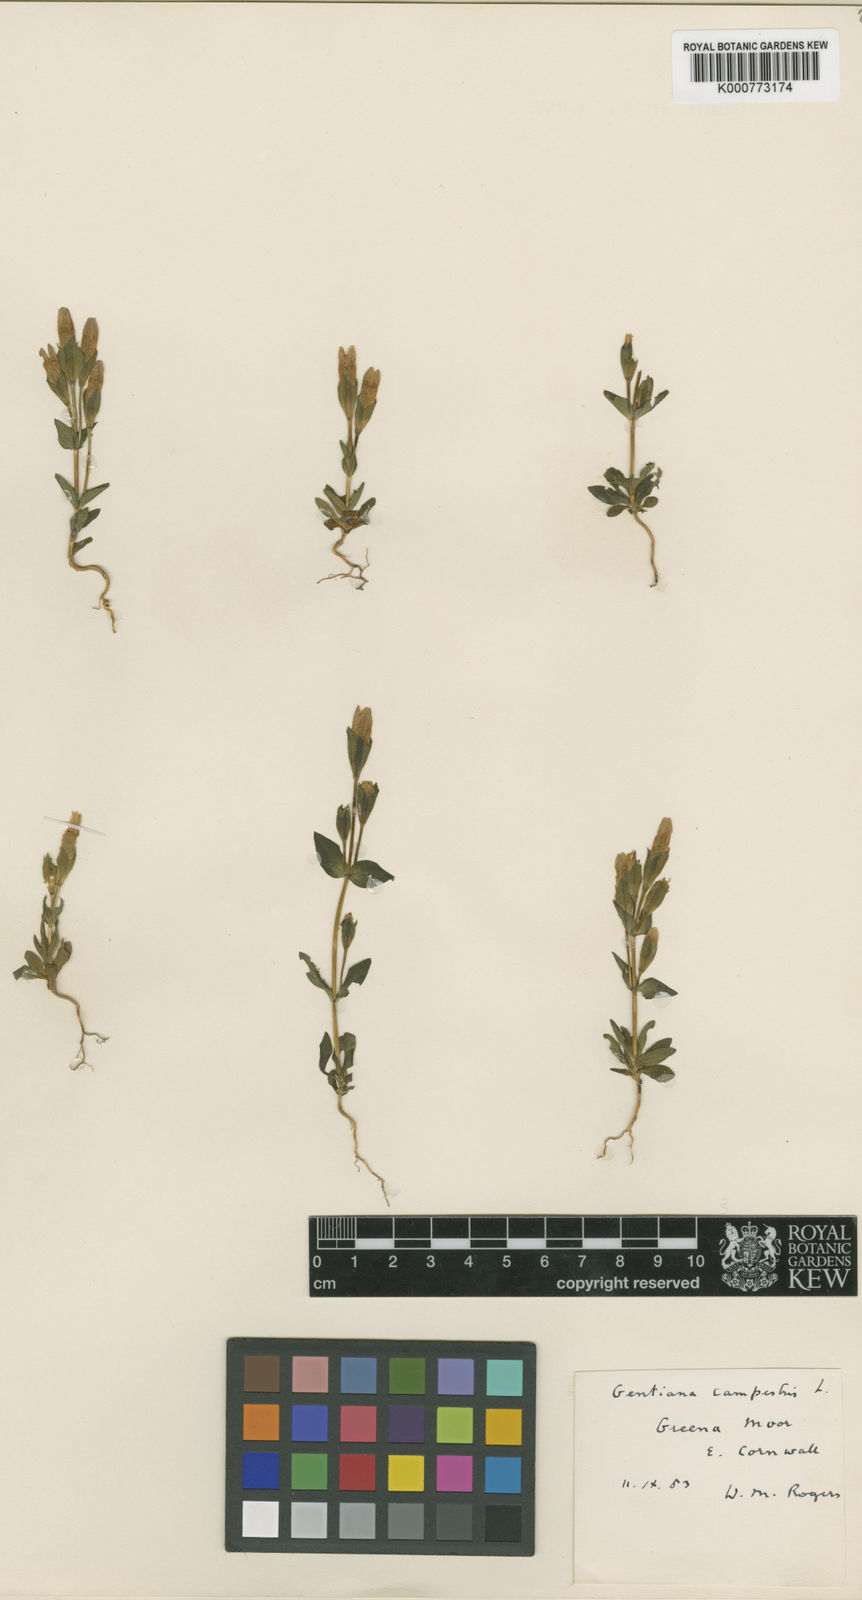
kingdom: Plantae
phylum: Tracheophyta
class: Magnoliopsida
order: Gentianales
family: Gentianaceae
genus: Gentianella
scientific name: Gentianella
